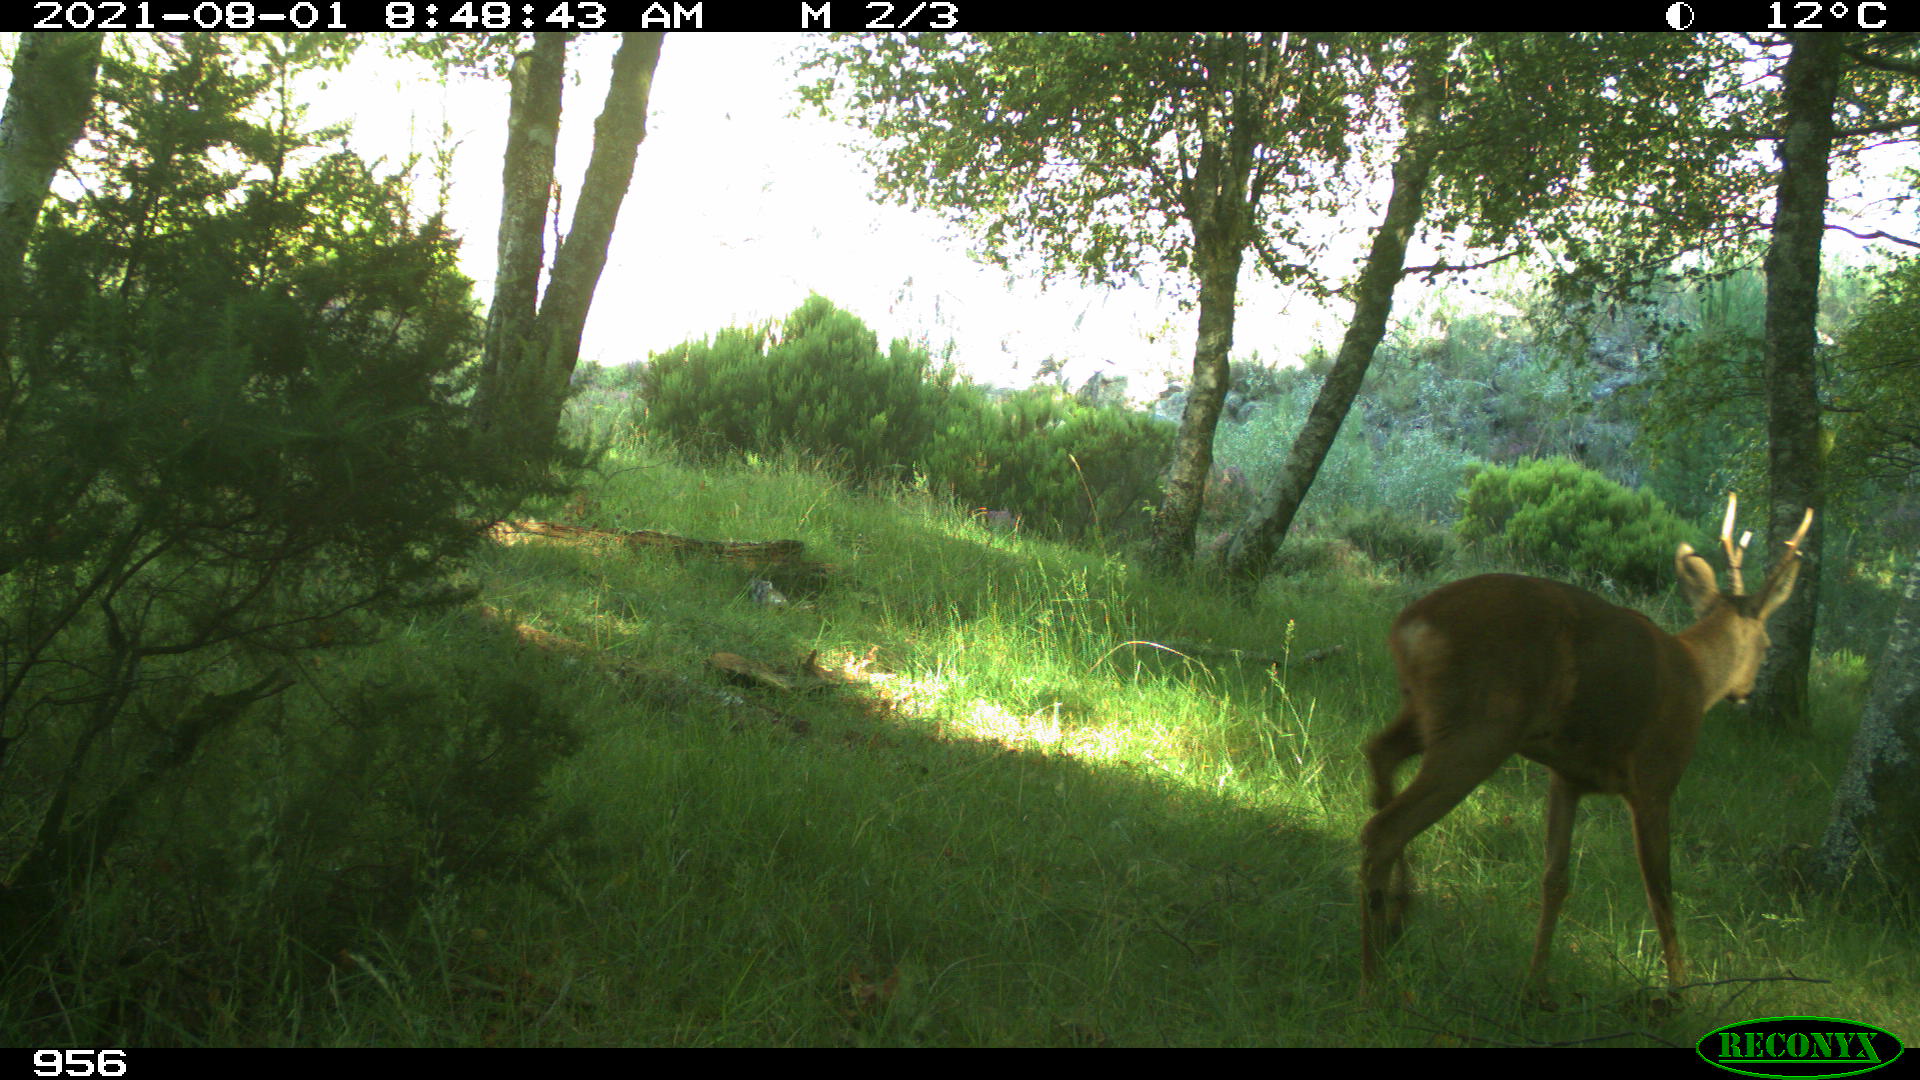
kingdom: Animalia
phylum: Chordata
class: Mammalia
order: Artiodactyla
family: Cervidae
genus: Capreolus
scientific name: Capreolus capreolus
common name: Western roe deer
